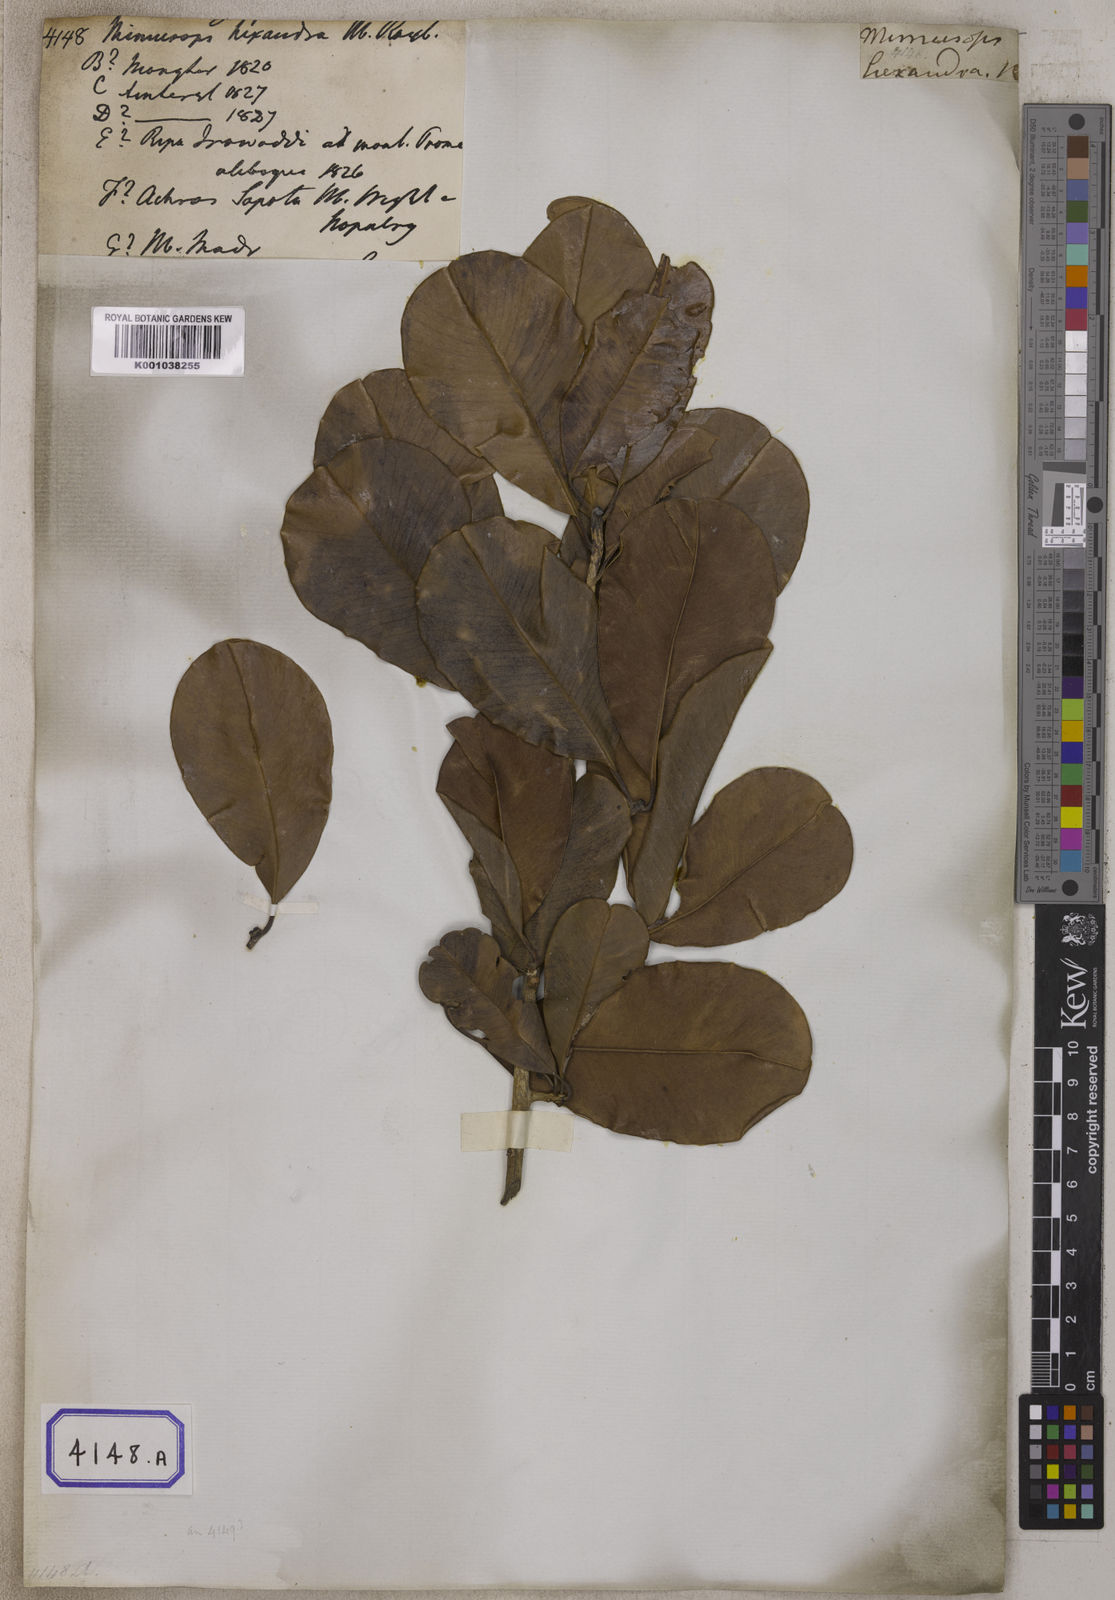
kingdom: Plantae
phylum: Tracheophyta
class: Magnoliopsida
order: Ericales
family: Sapotaceae
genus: Mimusops
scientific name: Mimusops
